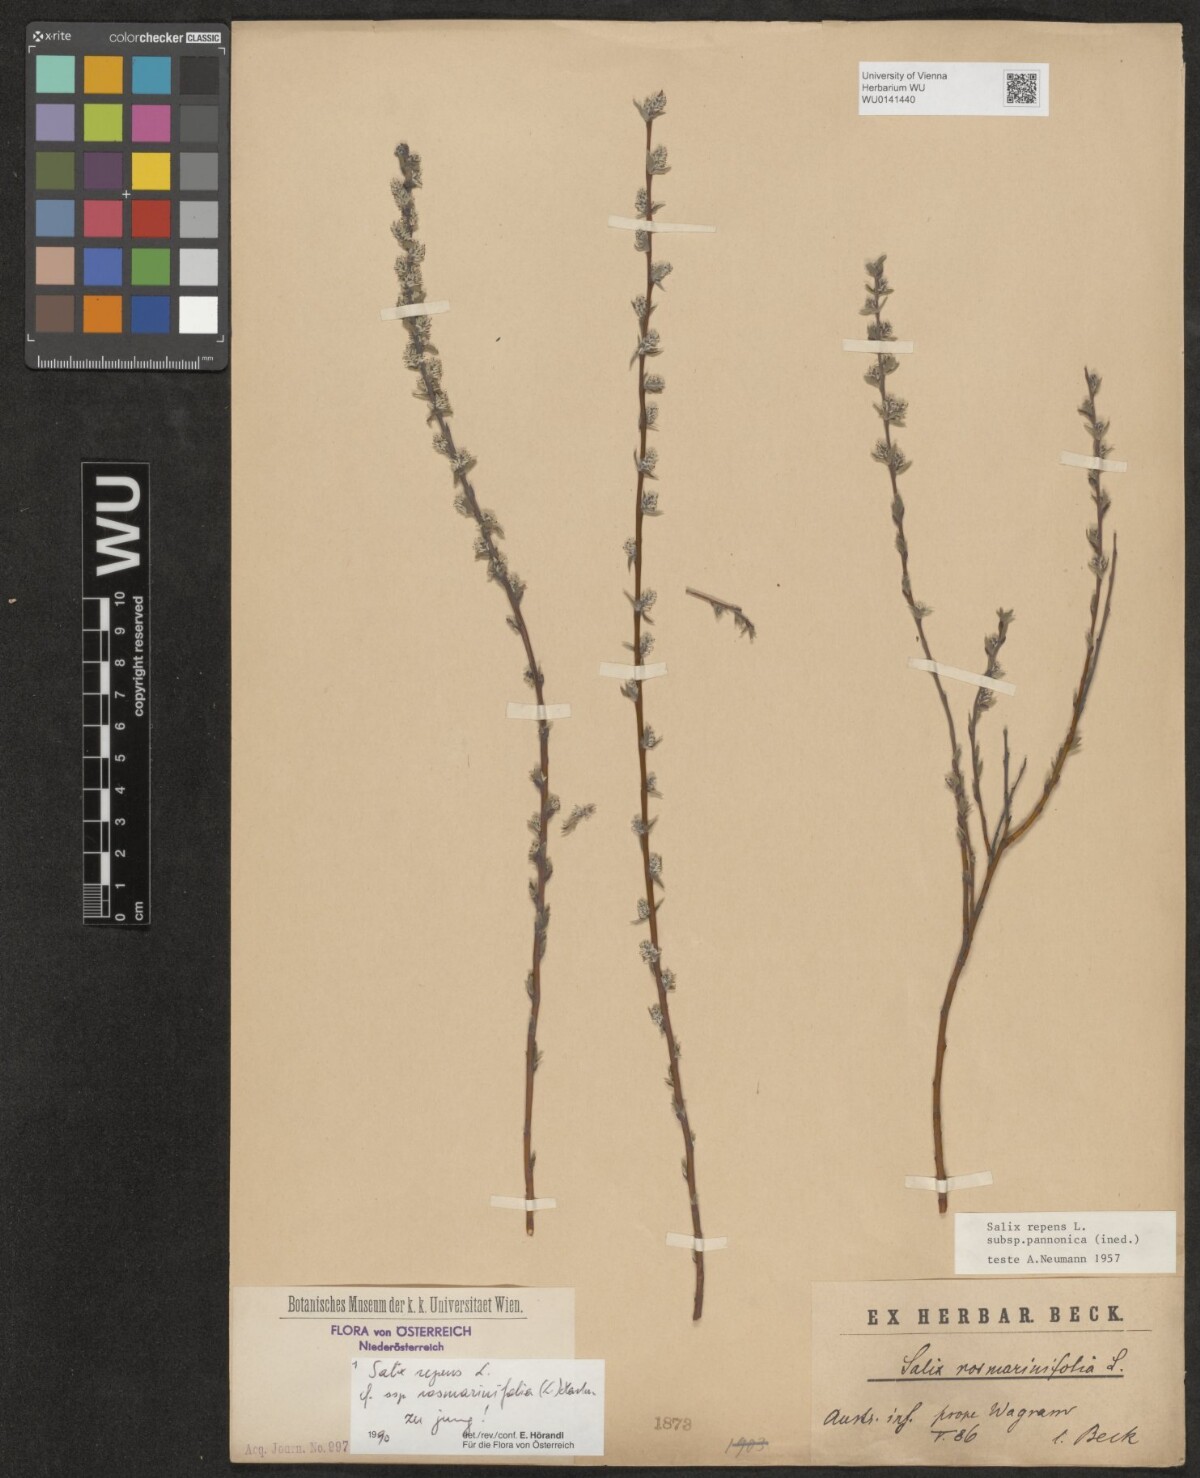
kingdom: Plantae
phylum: Tracheophyta
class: Magnoliopsida
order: Malpighiales
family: Salicaceae
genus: Salix
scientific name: Salix repens
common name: Creeping willow
